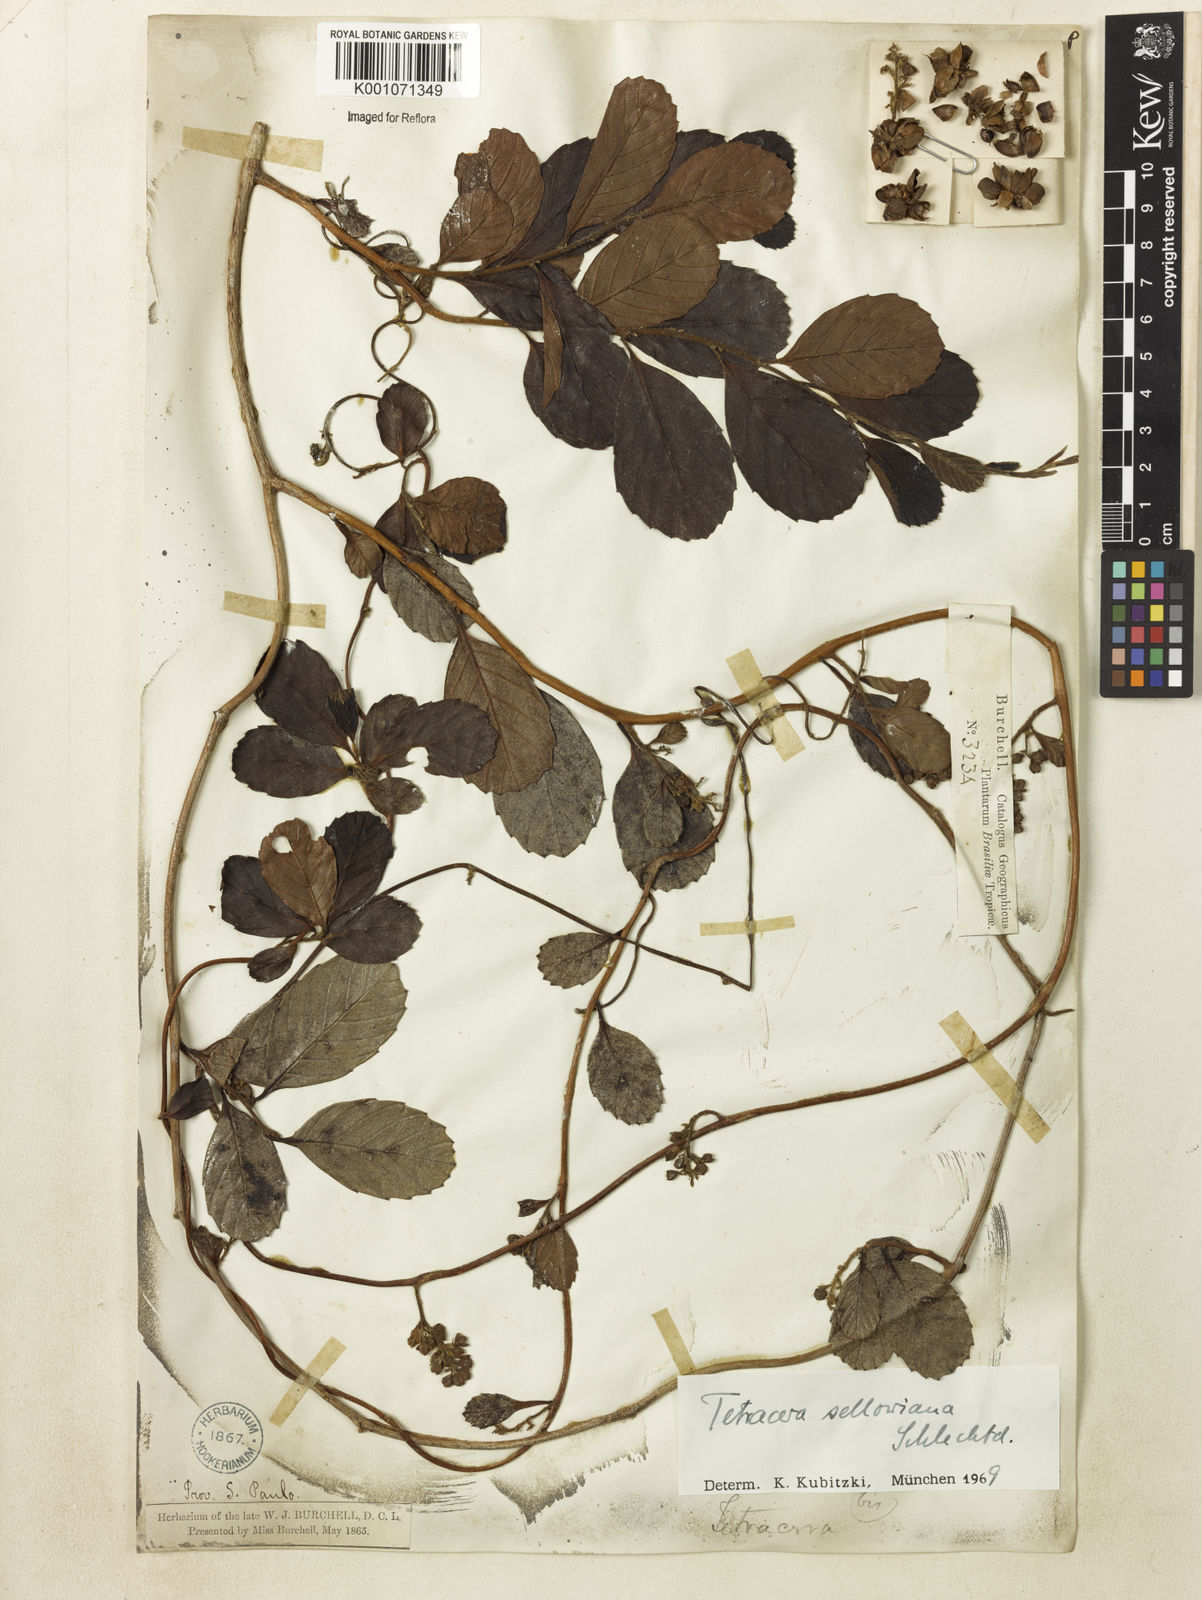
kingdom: Plantae
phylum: Tracheophyta
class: Magnoliopsida
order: Dilleniales
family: Dilleniaceae
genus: Tetracera
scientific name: Tetracera sellowiana
